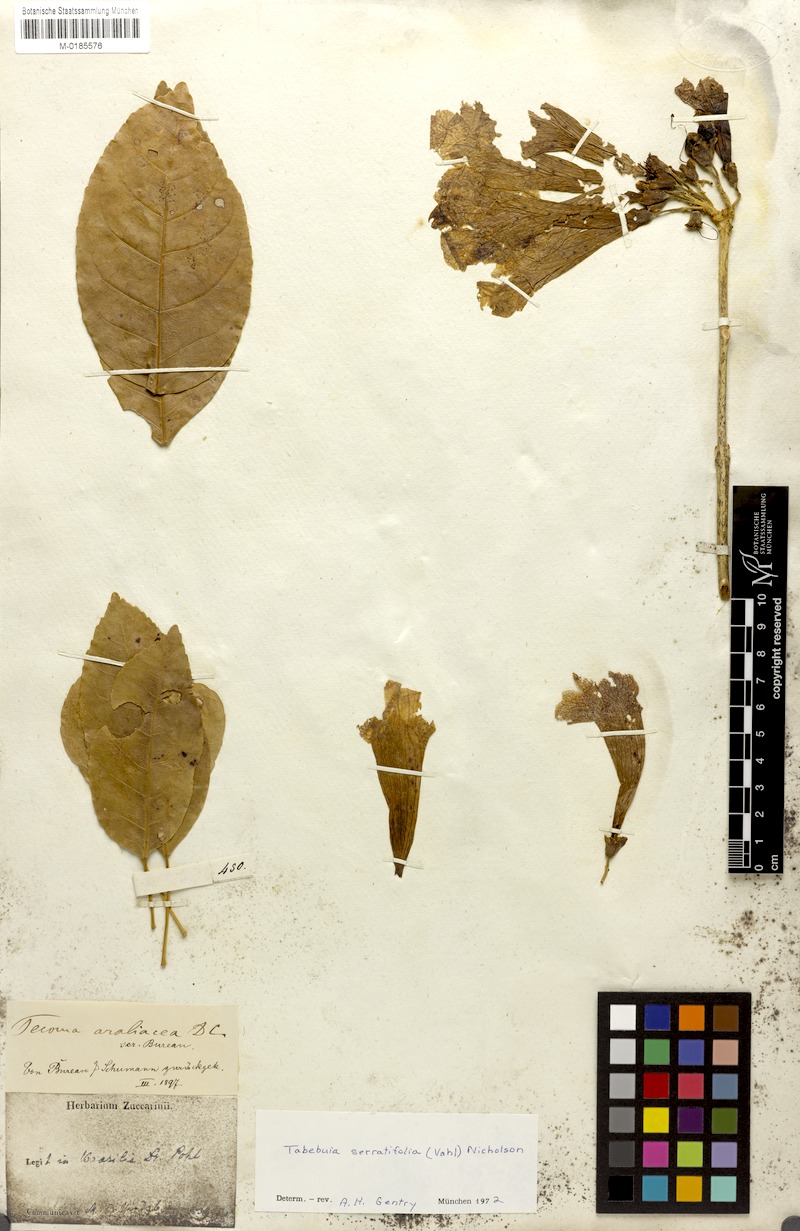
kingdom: Plantae
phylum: Tracheophyta
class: Magnoliopsida
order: Lamiales
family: Bignoniaceae
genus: Handroanthus
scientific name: Handroanthus serratifolius
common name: Yellow ipe
